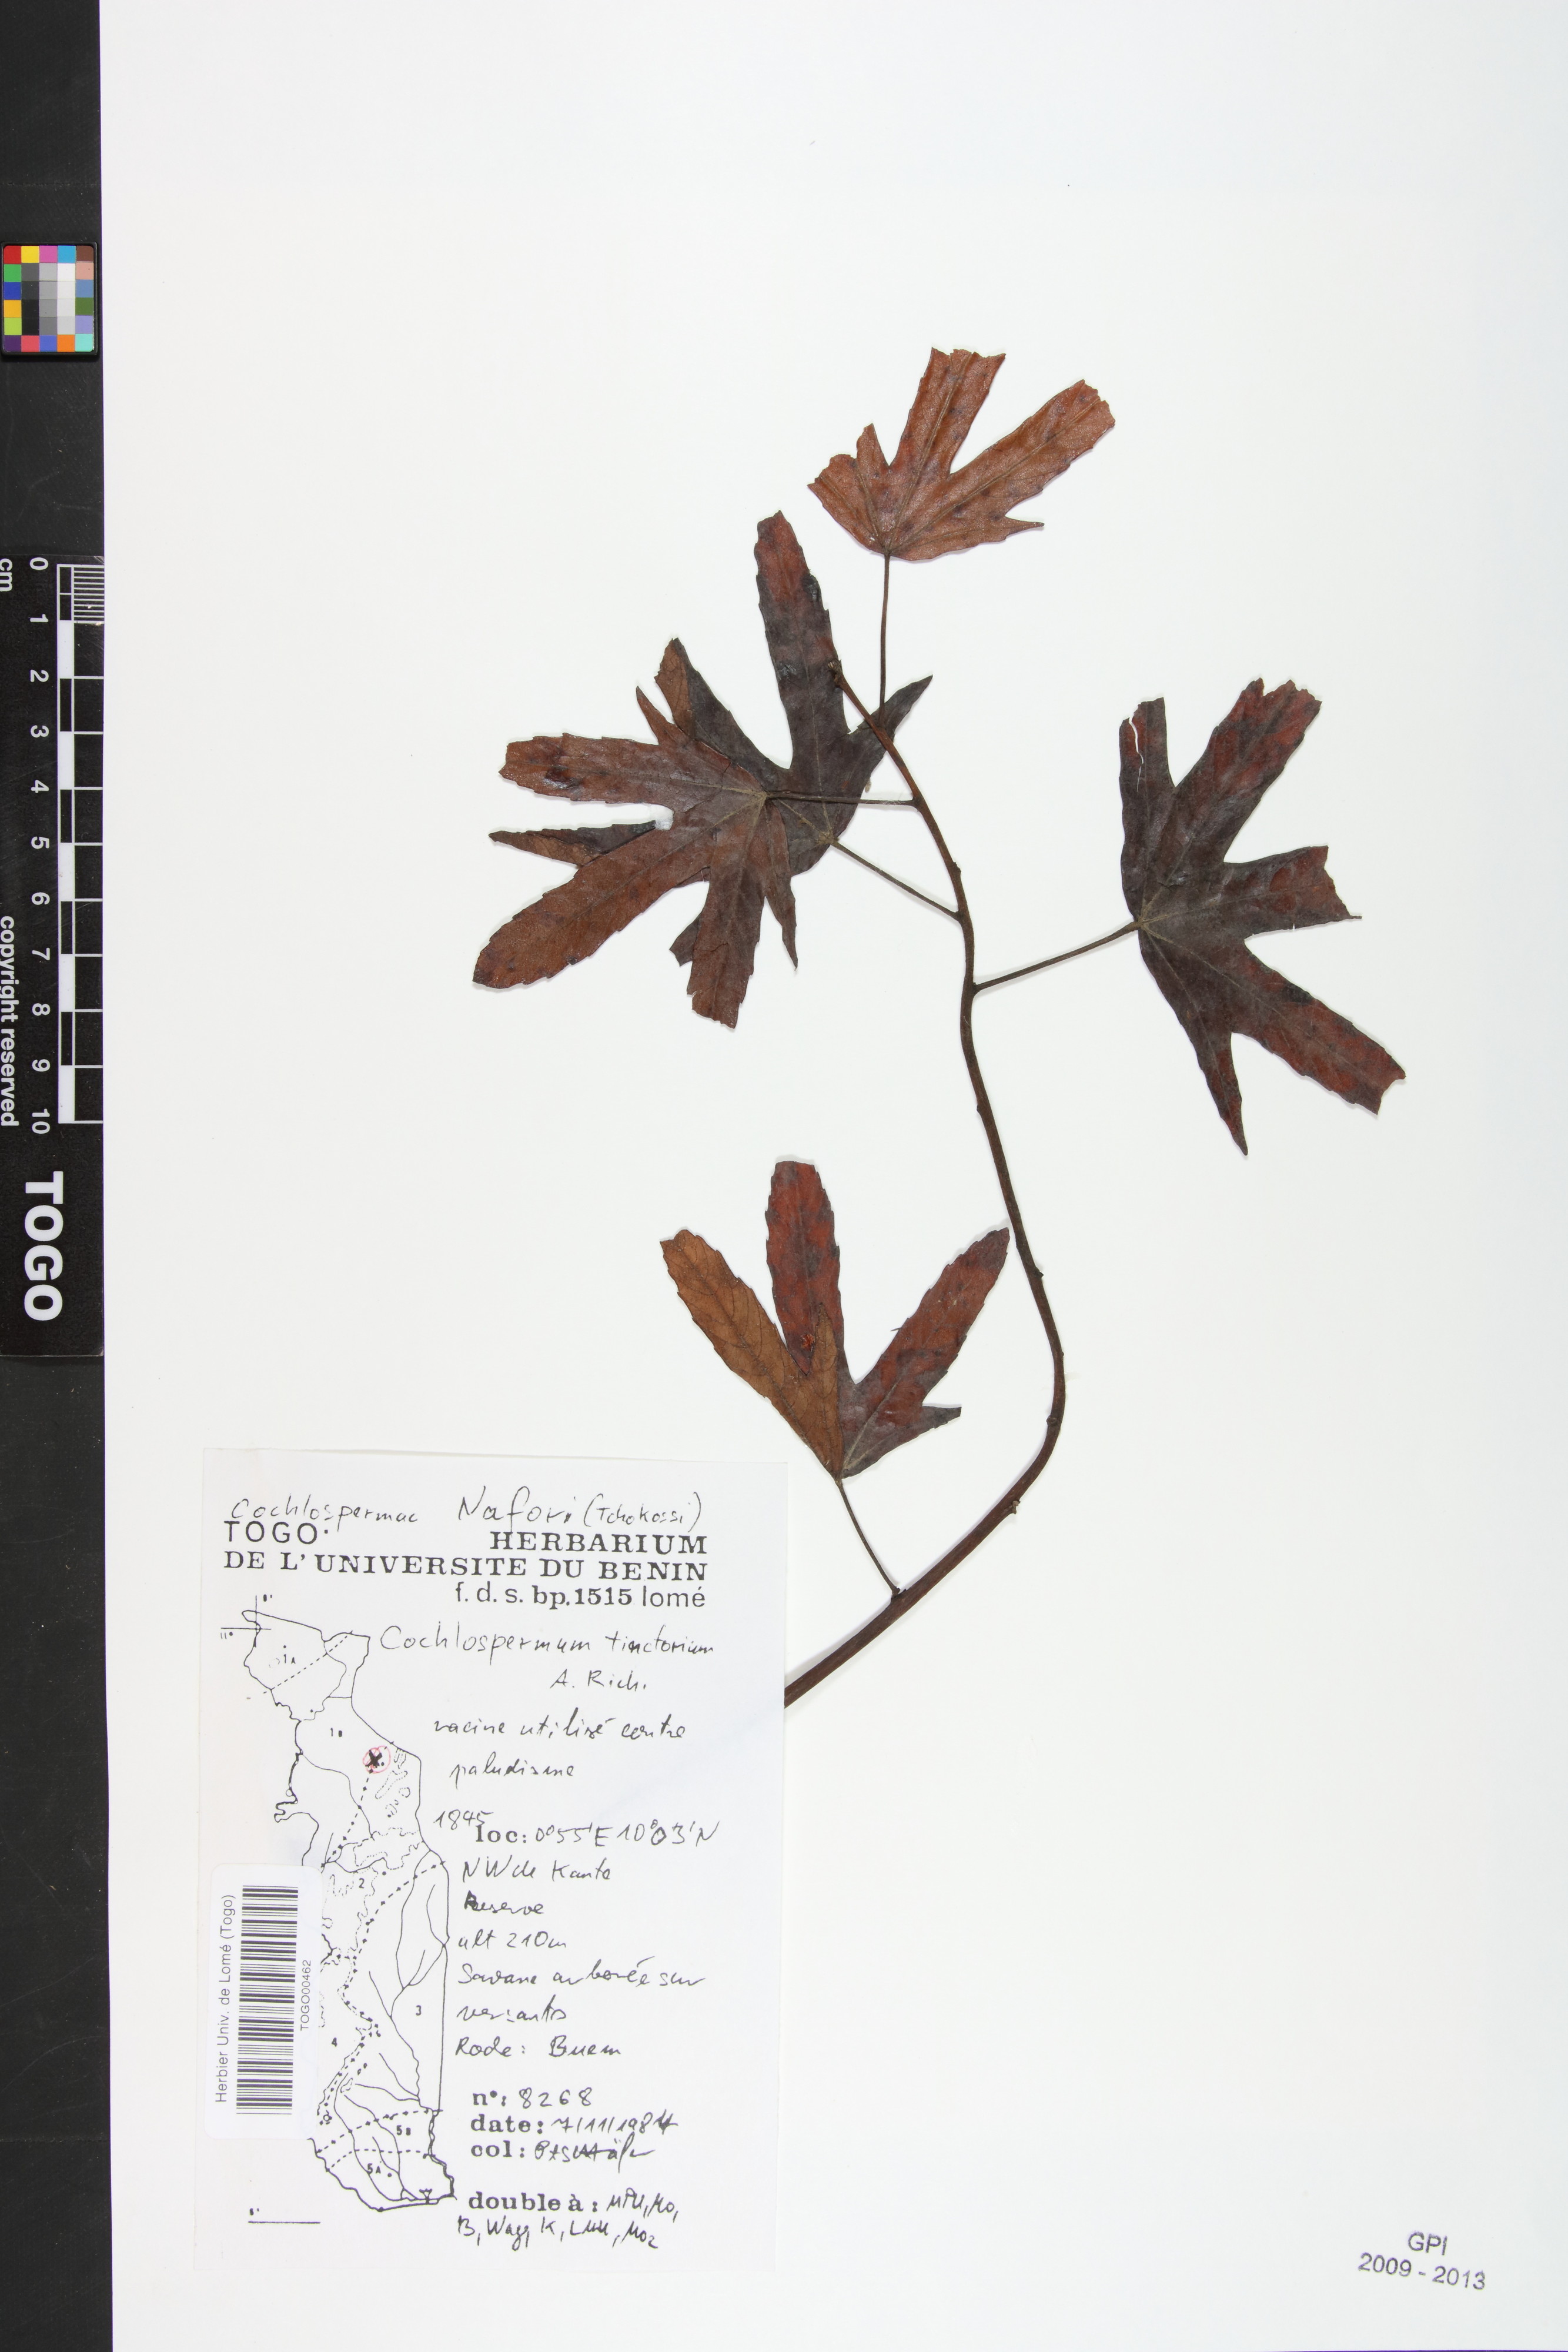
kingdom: Plantae
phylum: Tracheophyta
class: Magnoliopsida
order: Malvales
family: Cochlospermaceae
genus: Cochlospermum
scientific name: Cochlospermum tinctorium
